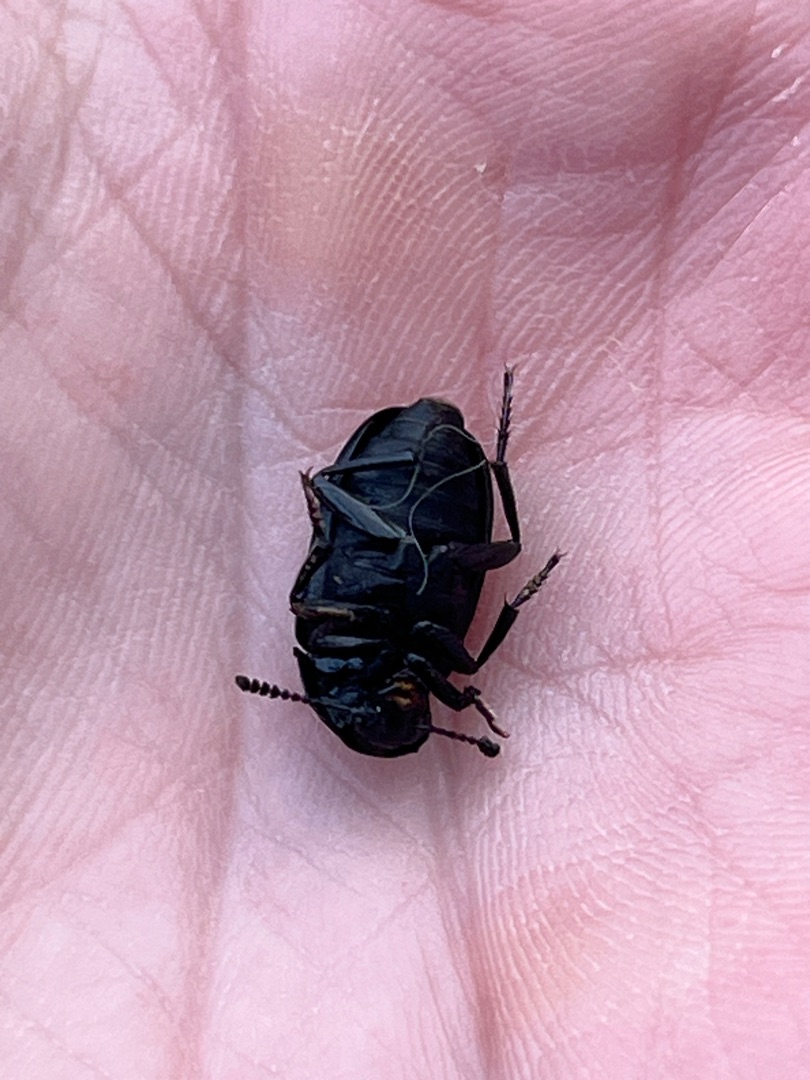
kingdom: Animalia
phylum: Arthropoda
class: Insecta
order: Coleoptera
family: Staphylinidae
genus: Silpha
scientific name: Silpha tristis
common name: Kornet ådselbille
